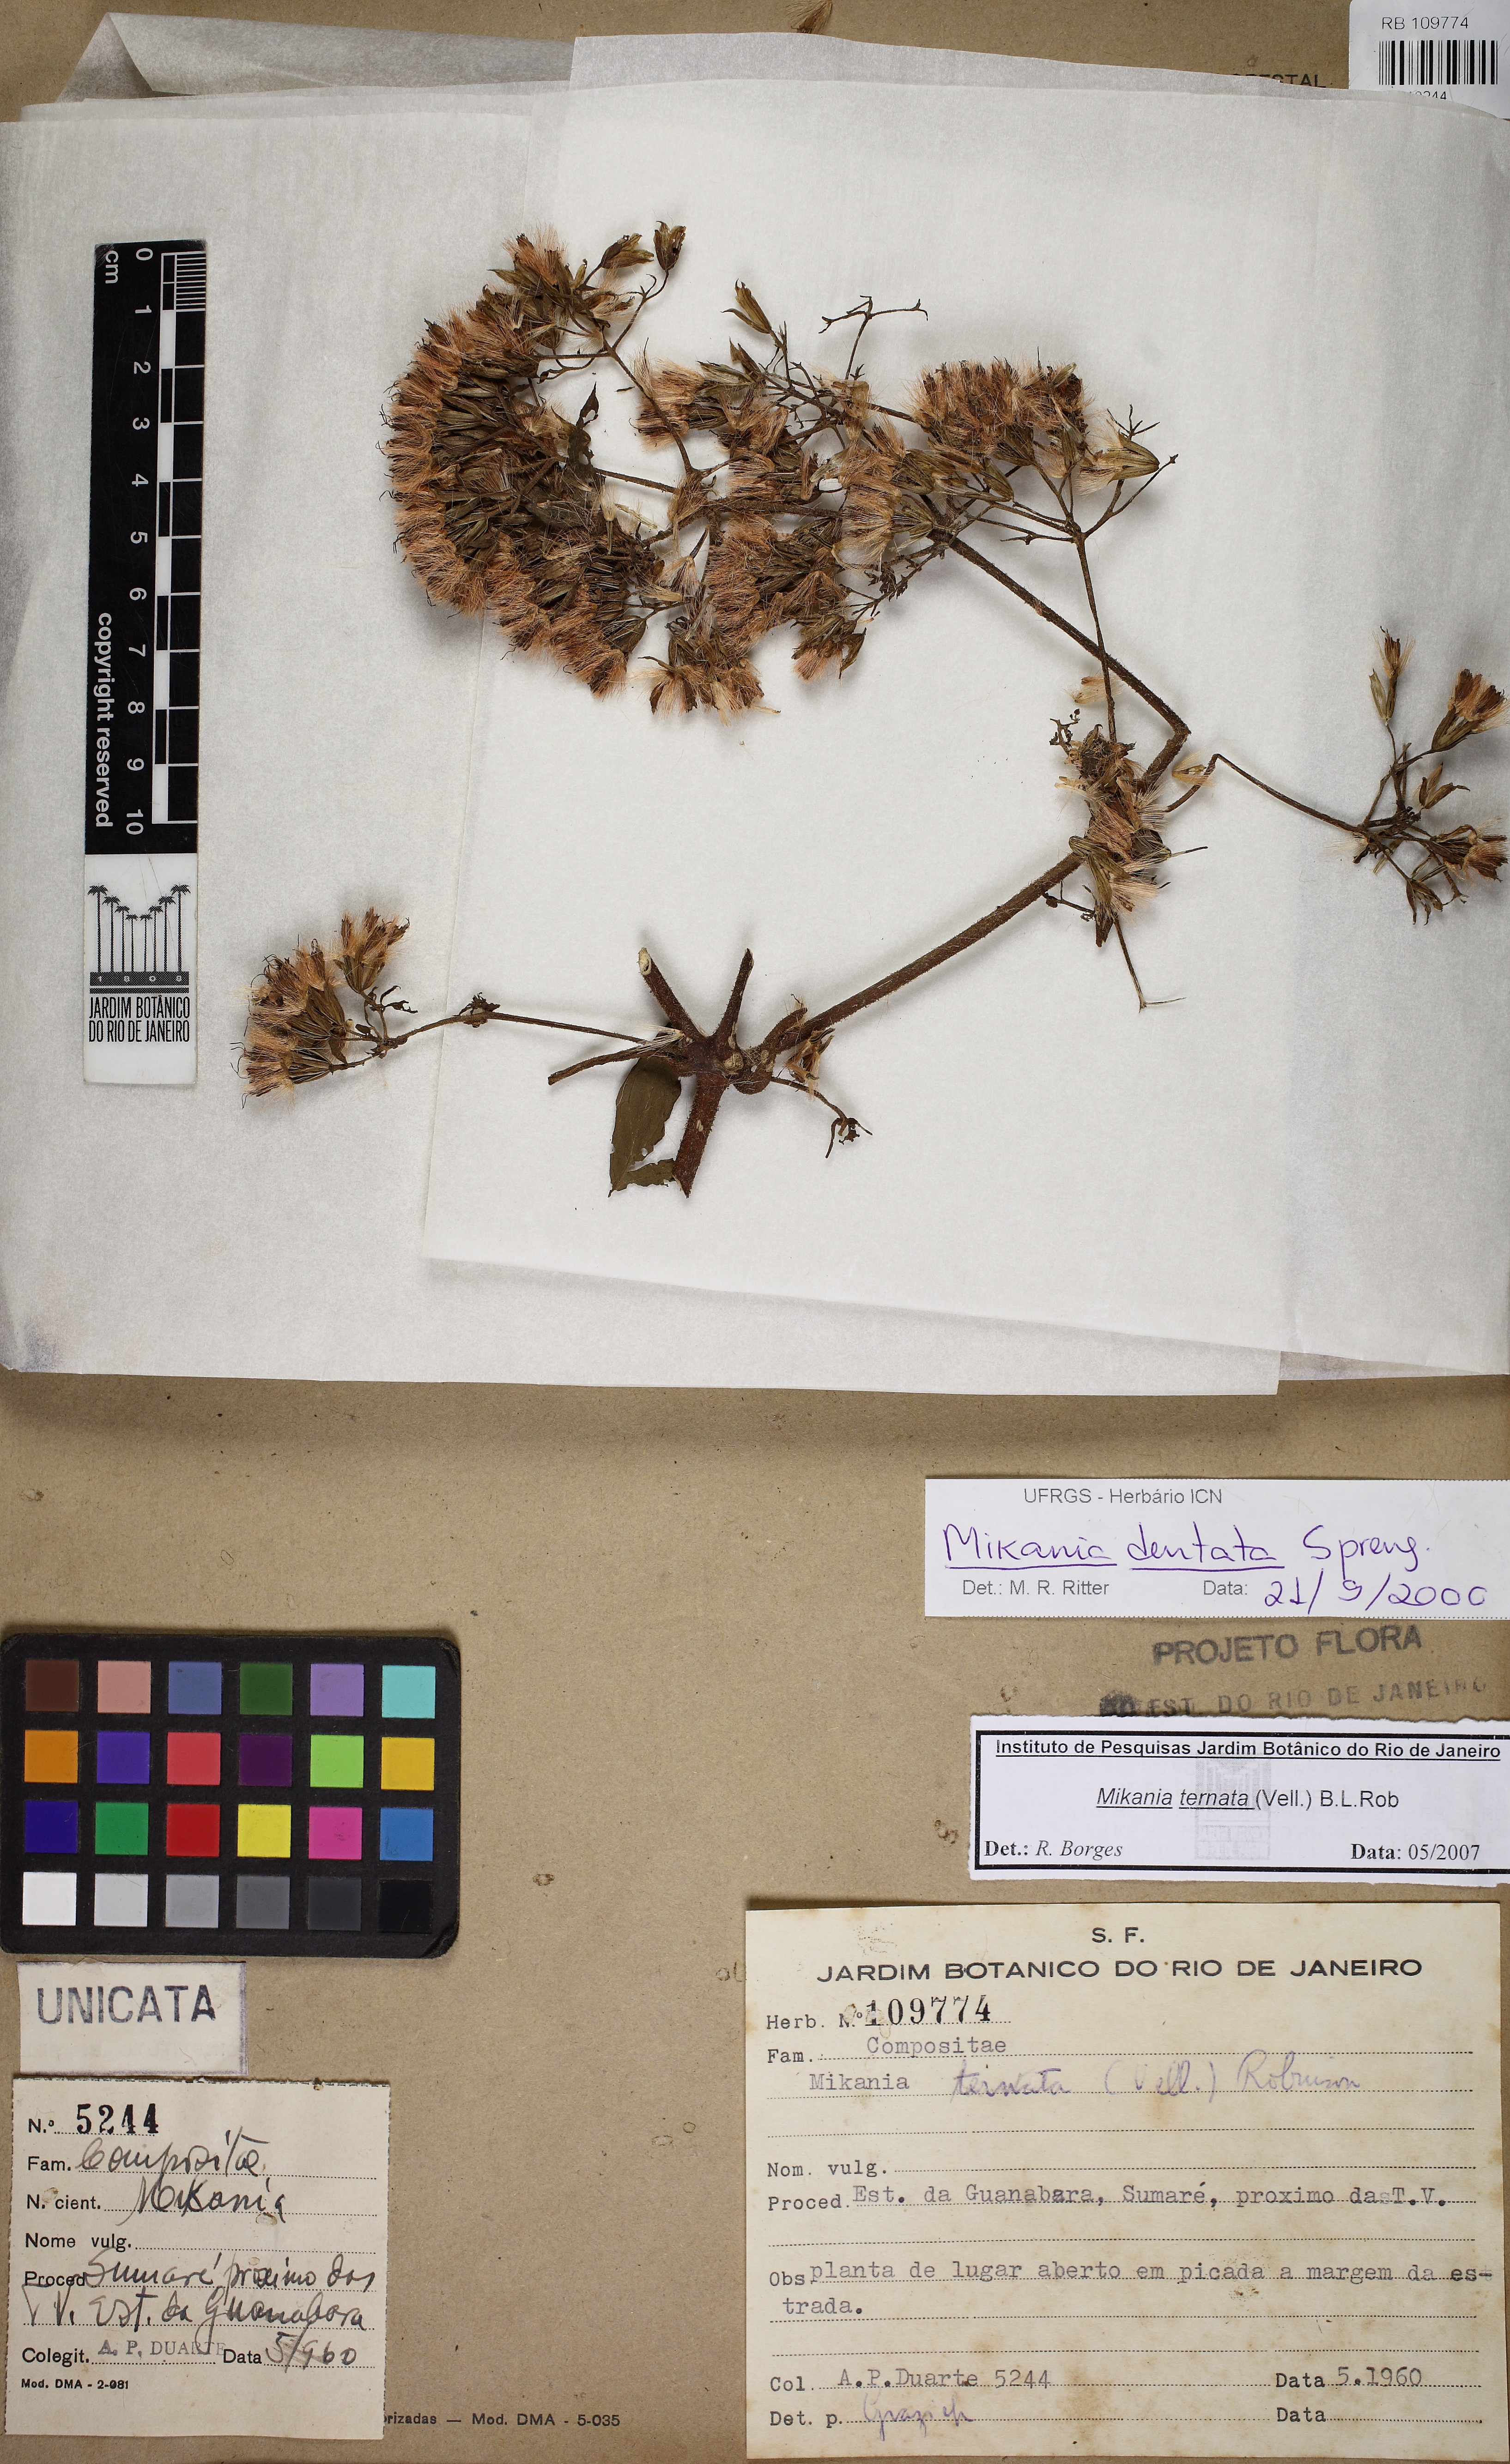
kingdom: Plantae
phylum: Tracheophyta
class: Magnoliopsida
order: Asterales
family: Asteraceae
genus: Mikania
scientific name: Mikania ternata
